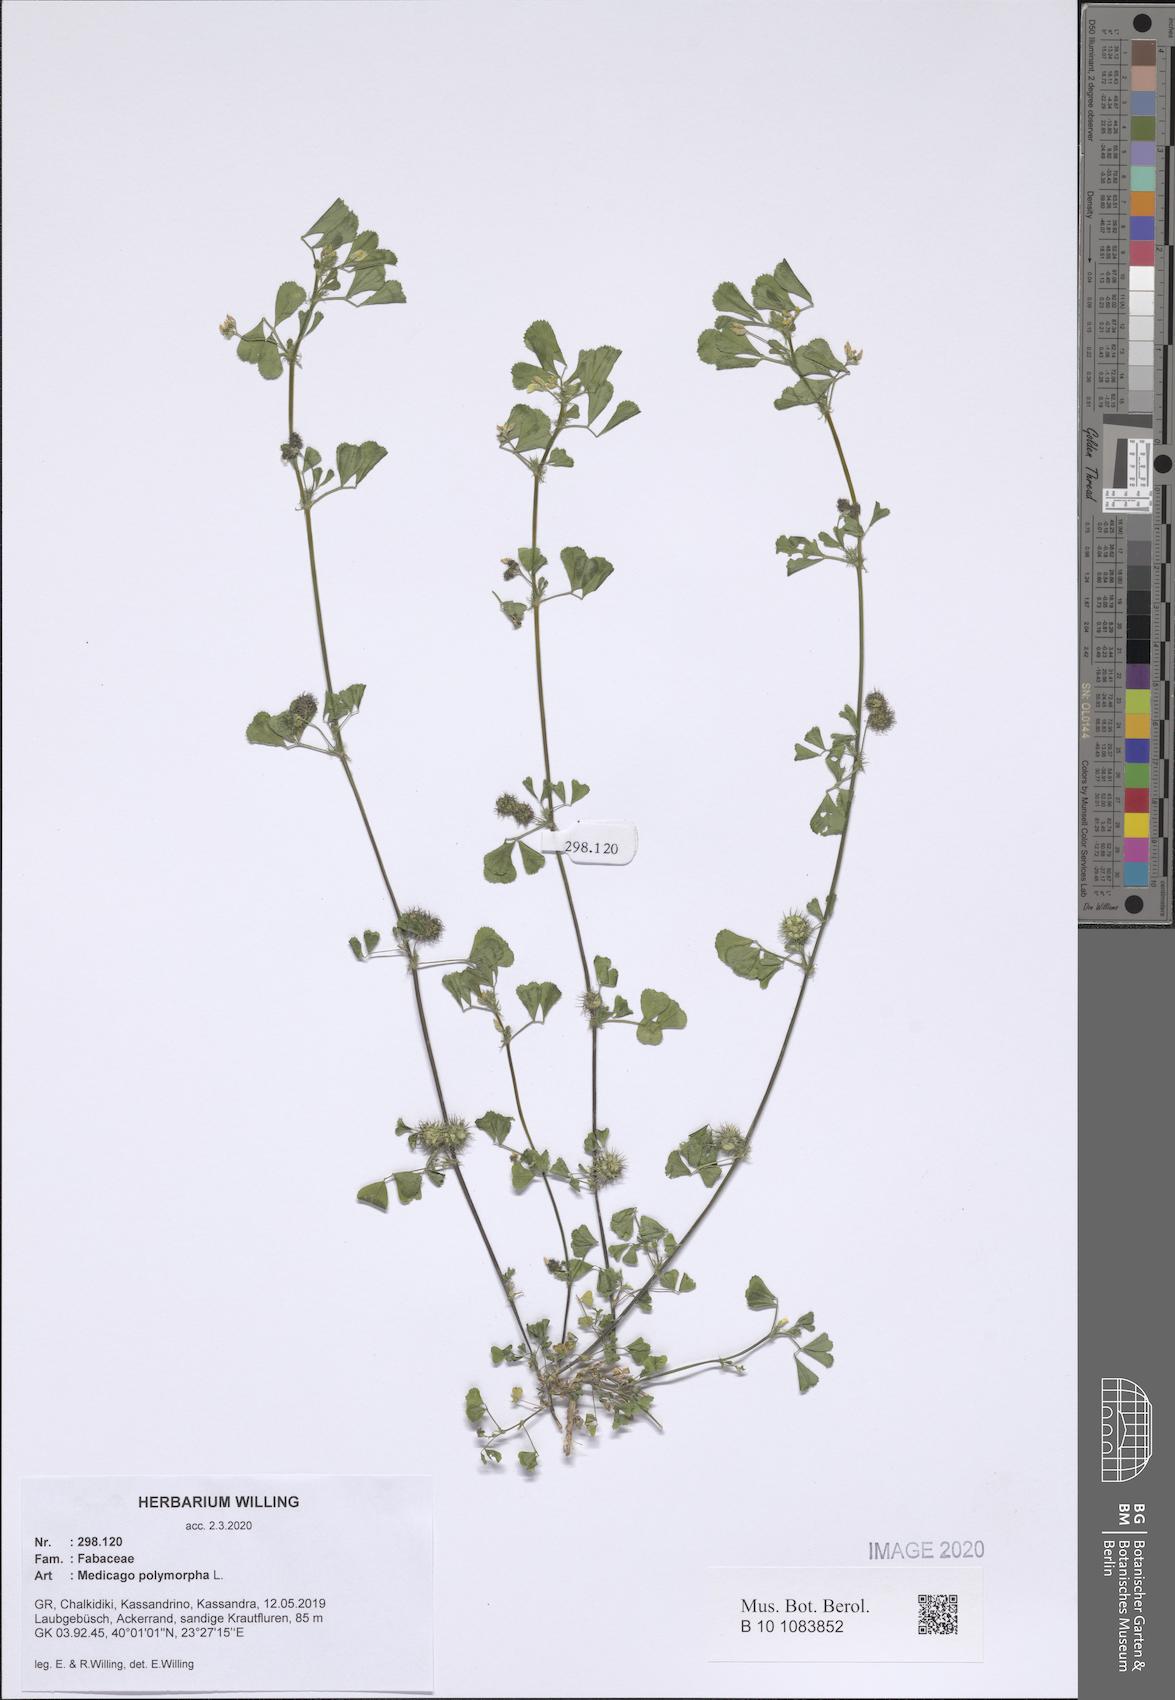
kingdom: Plantae
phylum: Tracheophyta
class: Magnoliopsida
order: Fabales
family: Fabaceae
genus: Medicago
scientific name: Medicago polymorpha
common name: Burclover
